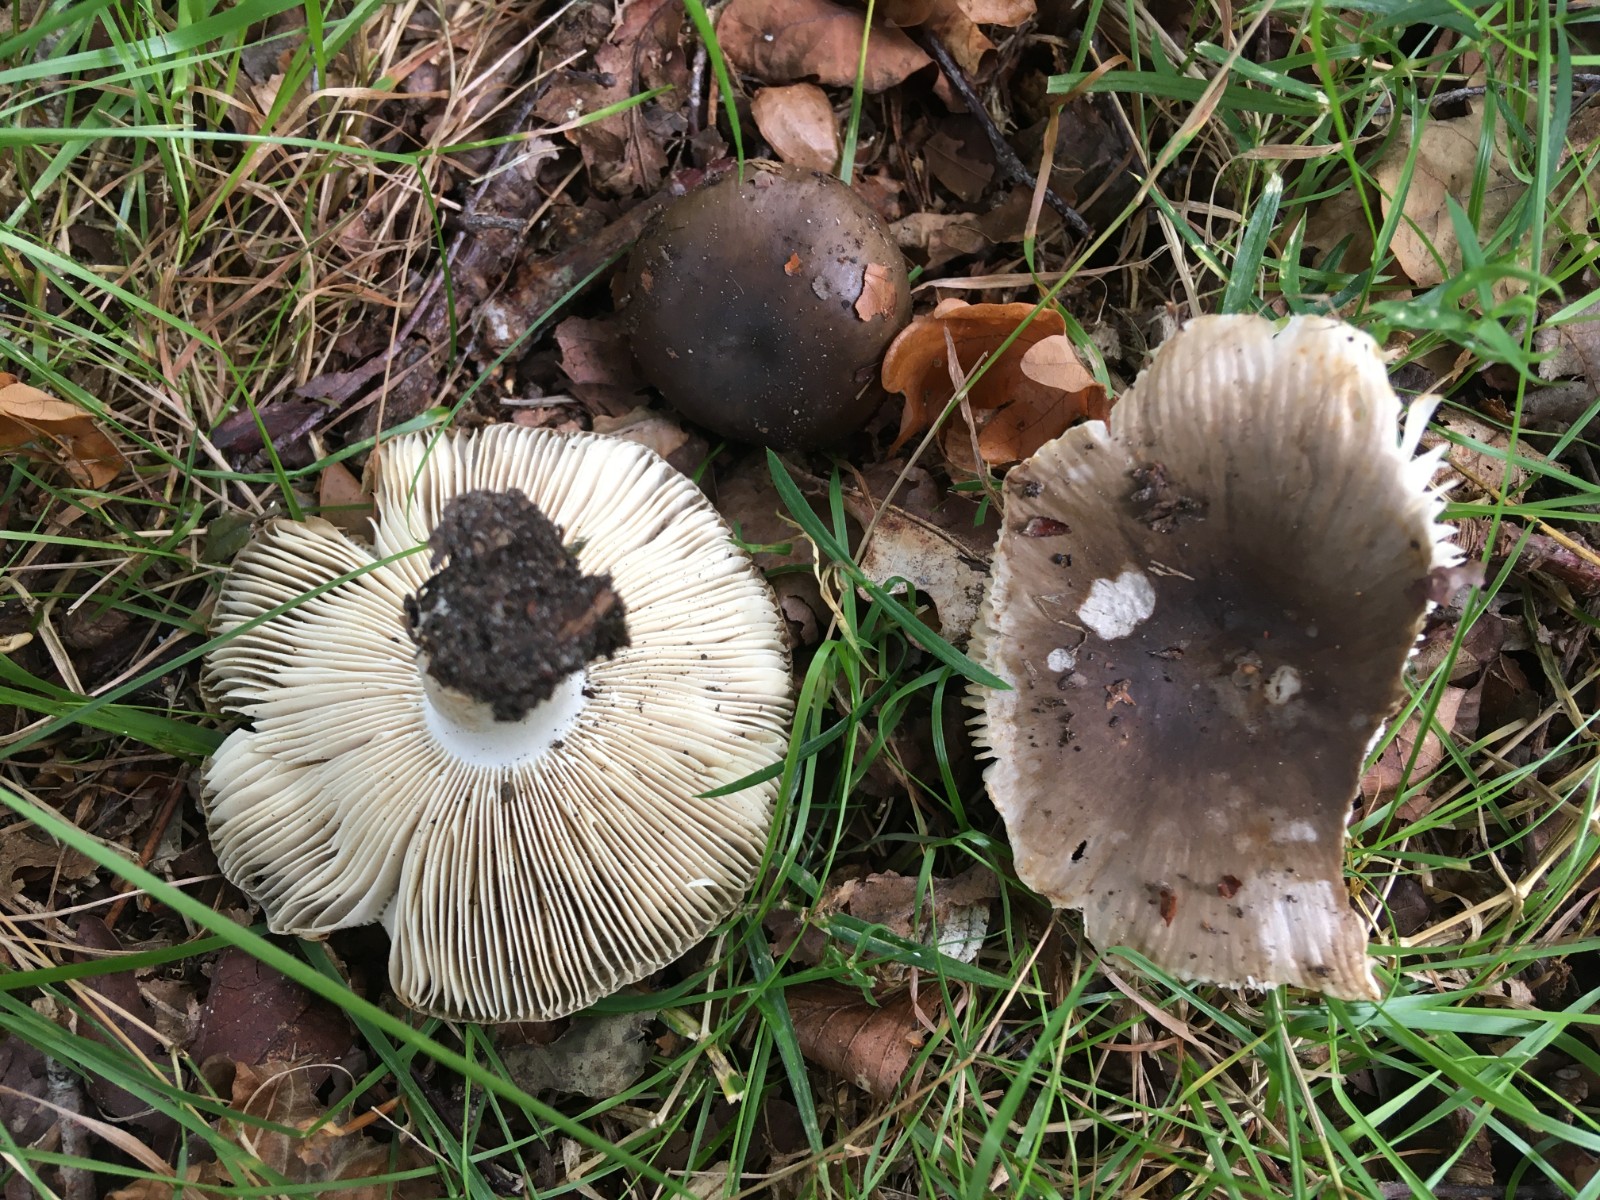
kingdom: Fungi
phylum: Basidiomycota
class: Agaricomycetes
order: Russulales
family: Russulaceae
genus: Russula
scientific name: Russula amoenolens
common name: skarp kam-skørhat
